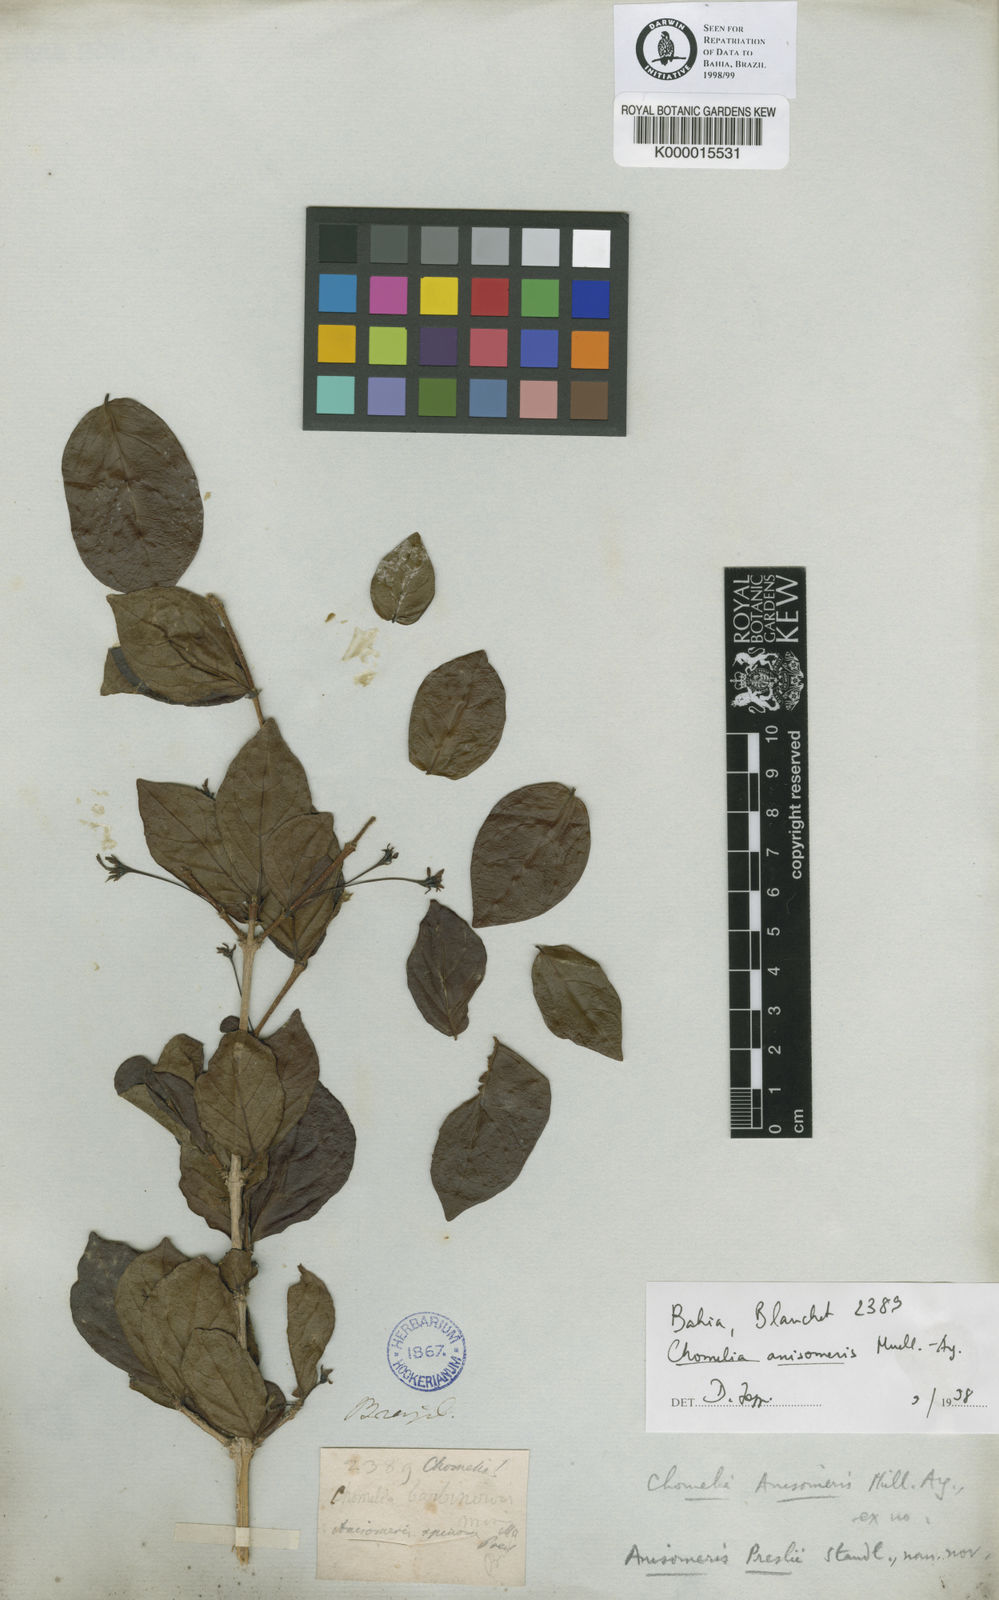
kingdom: Plantae
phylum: Tracheophyta
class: Magnoliopsida
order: Gentianales
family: Rubiaceae
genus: Chomelia
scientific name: Chomelia
